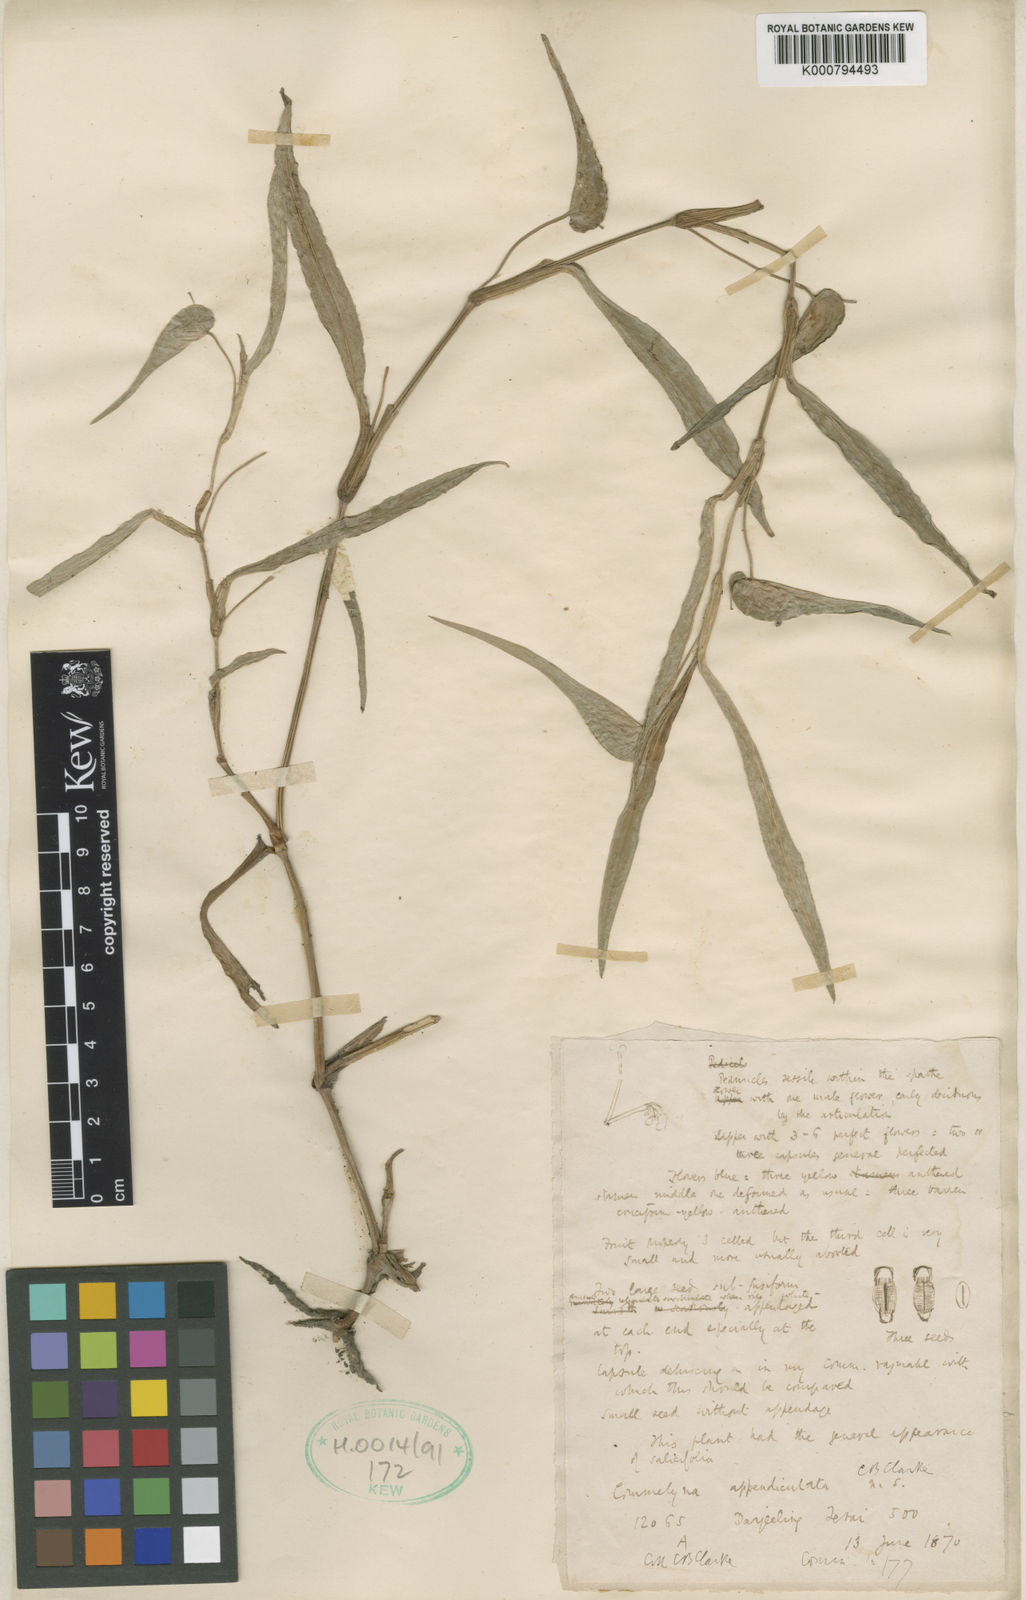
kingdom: Plantae
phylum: Tracheophyta
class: Liliopsida
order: Commelinales
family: Commelinaceae
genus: Commelina
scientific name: Commelina appendiculata
